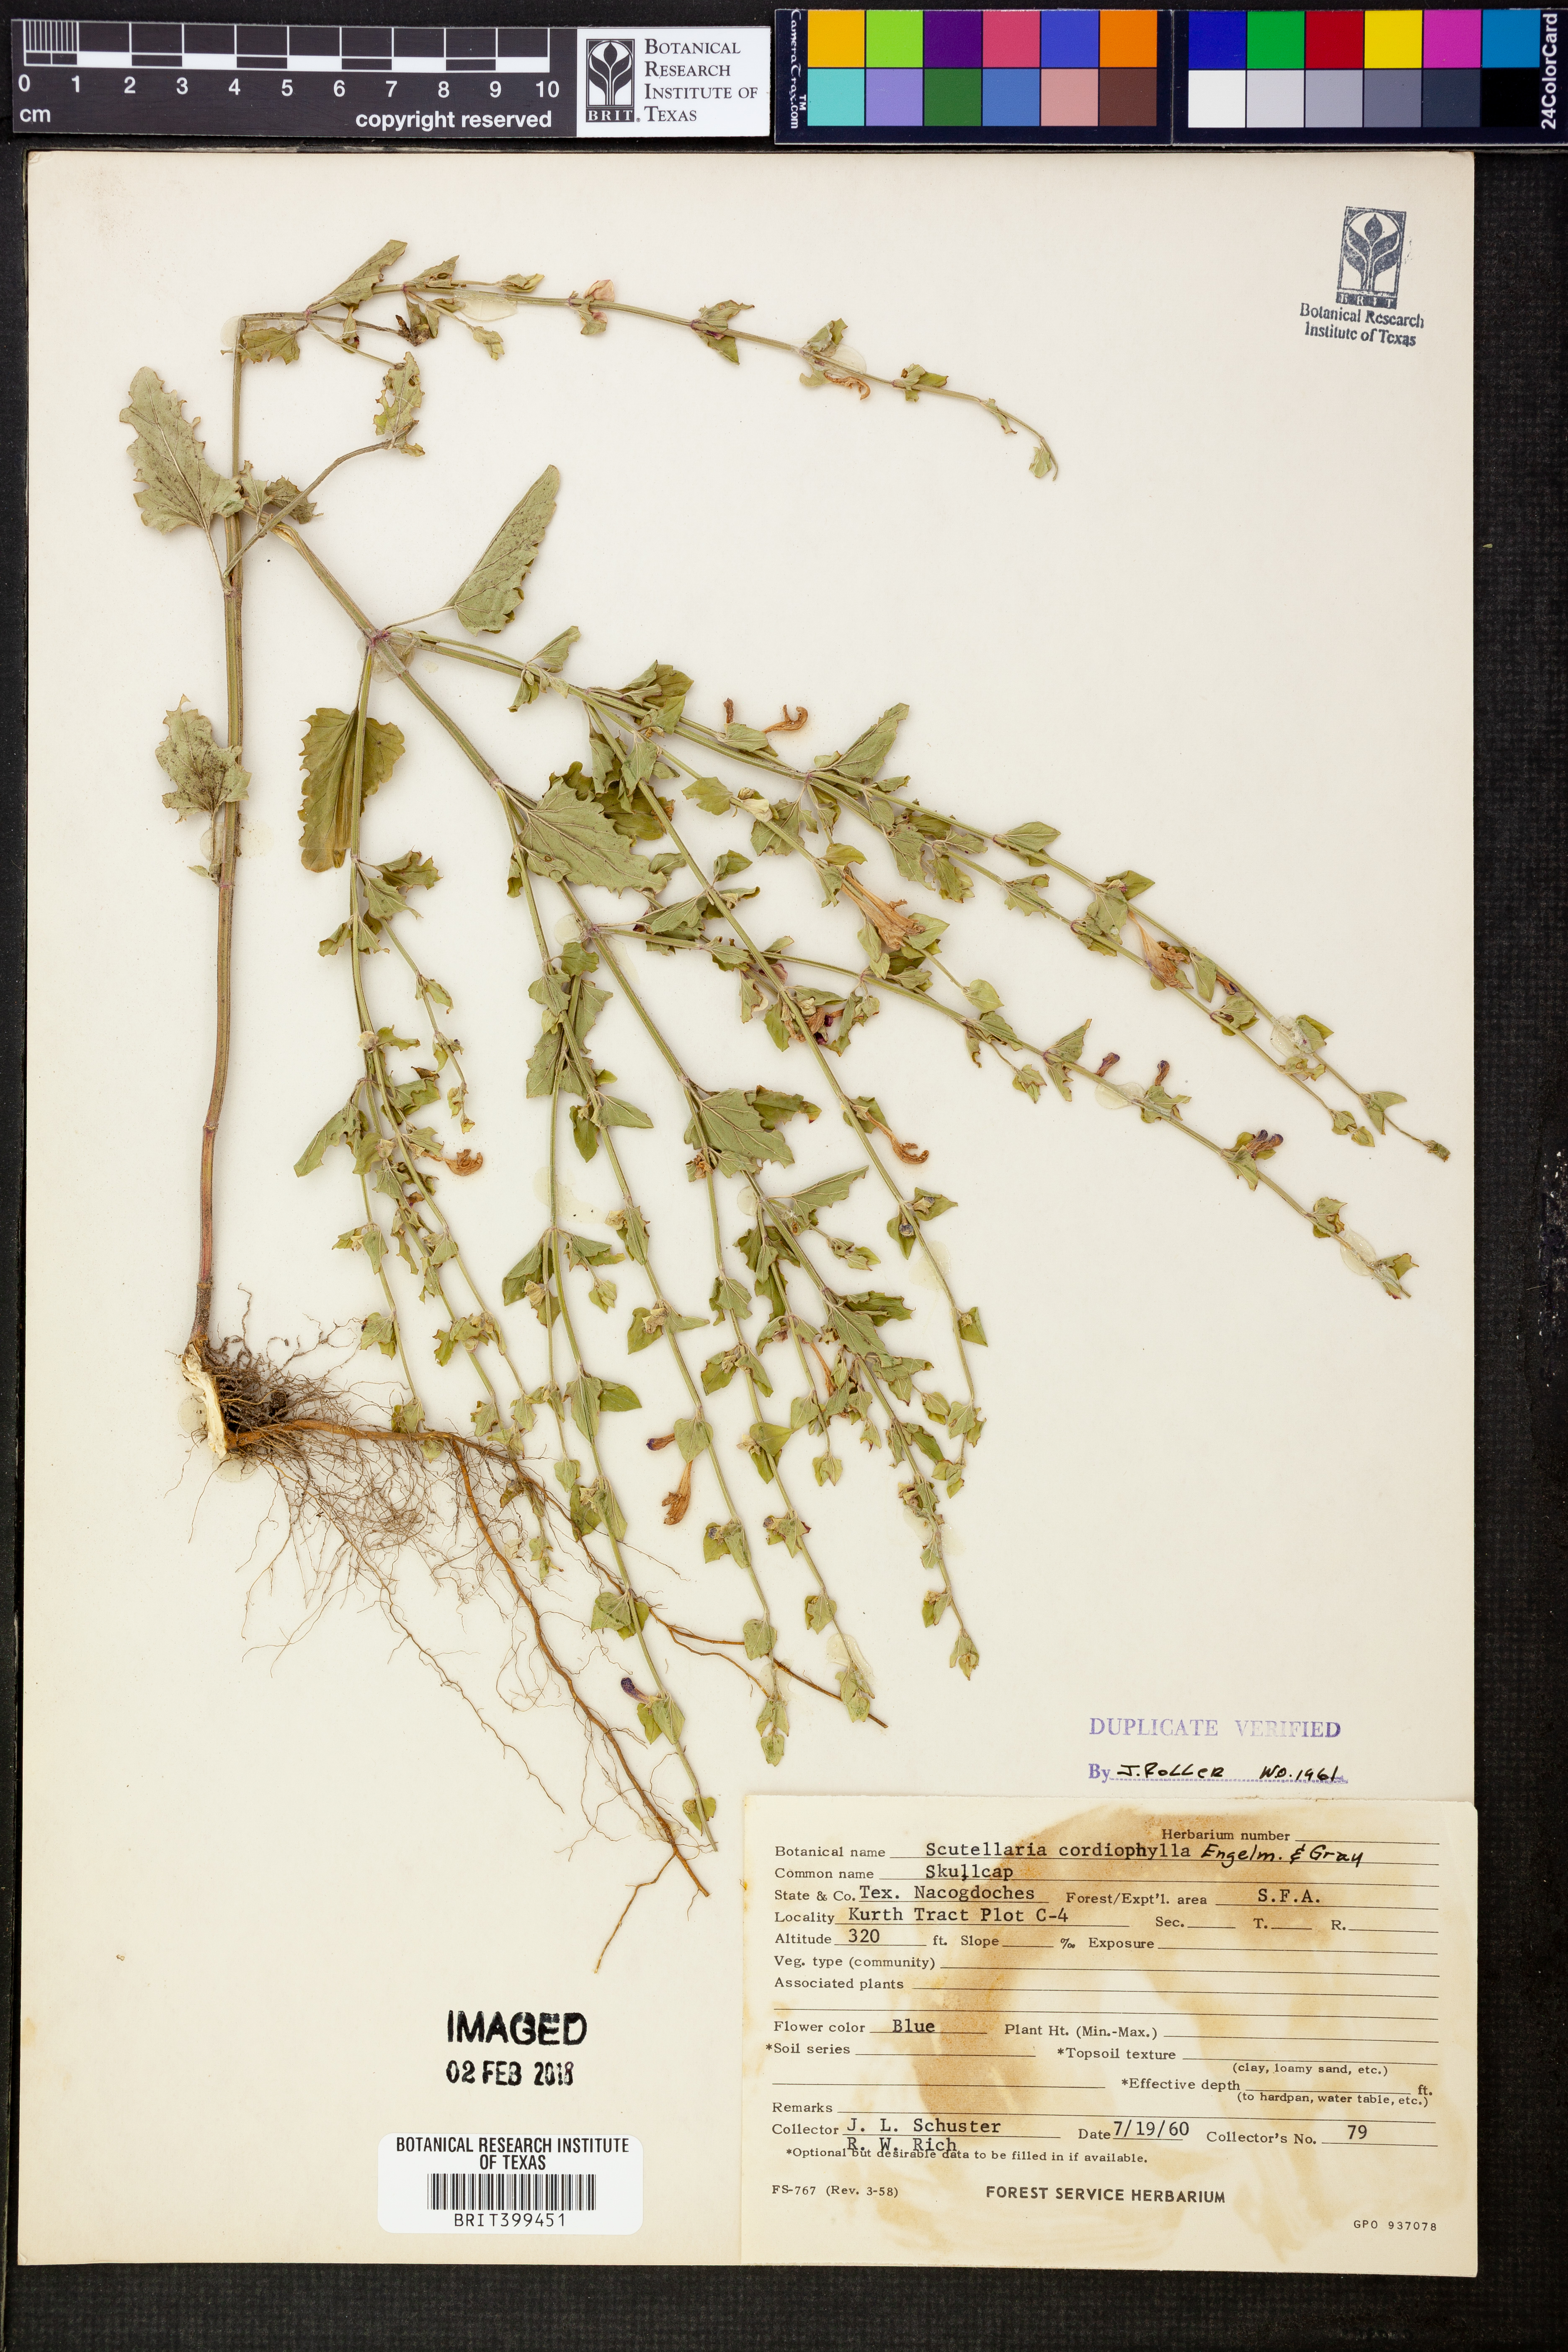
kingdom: Plantae
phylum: Tracheophyta
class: Magnoliopsida
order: Lamiales
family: Lamiaceae
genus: Scutellaria
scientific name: Scutellaria ovata
